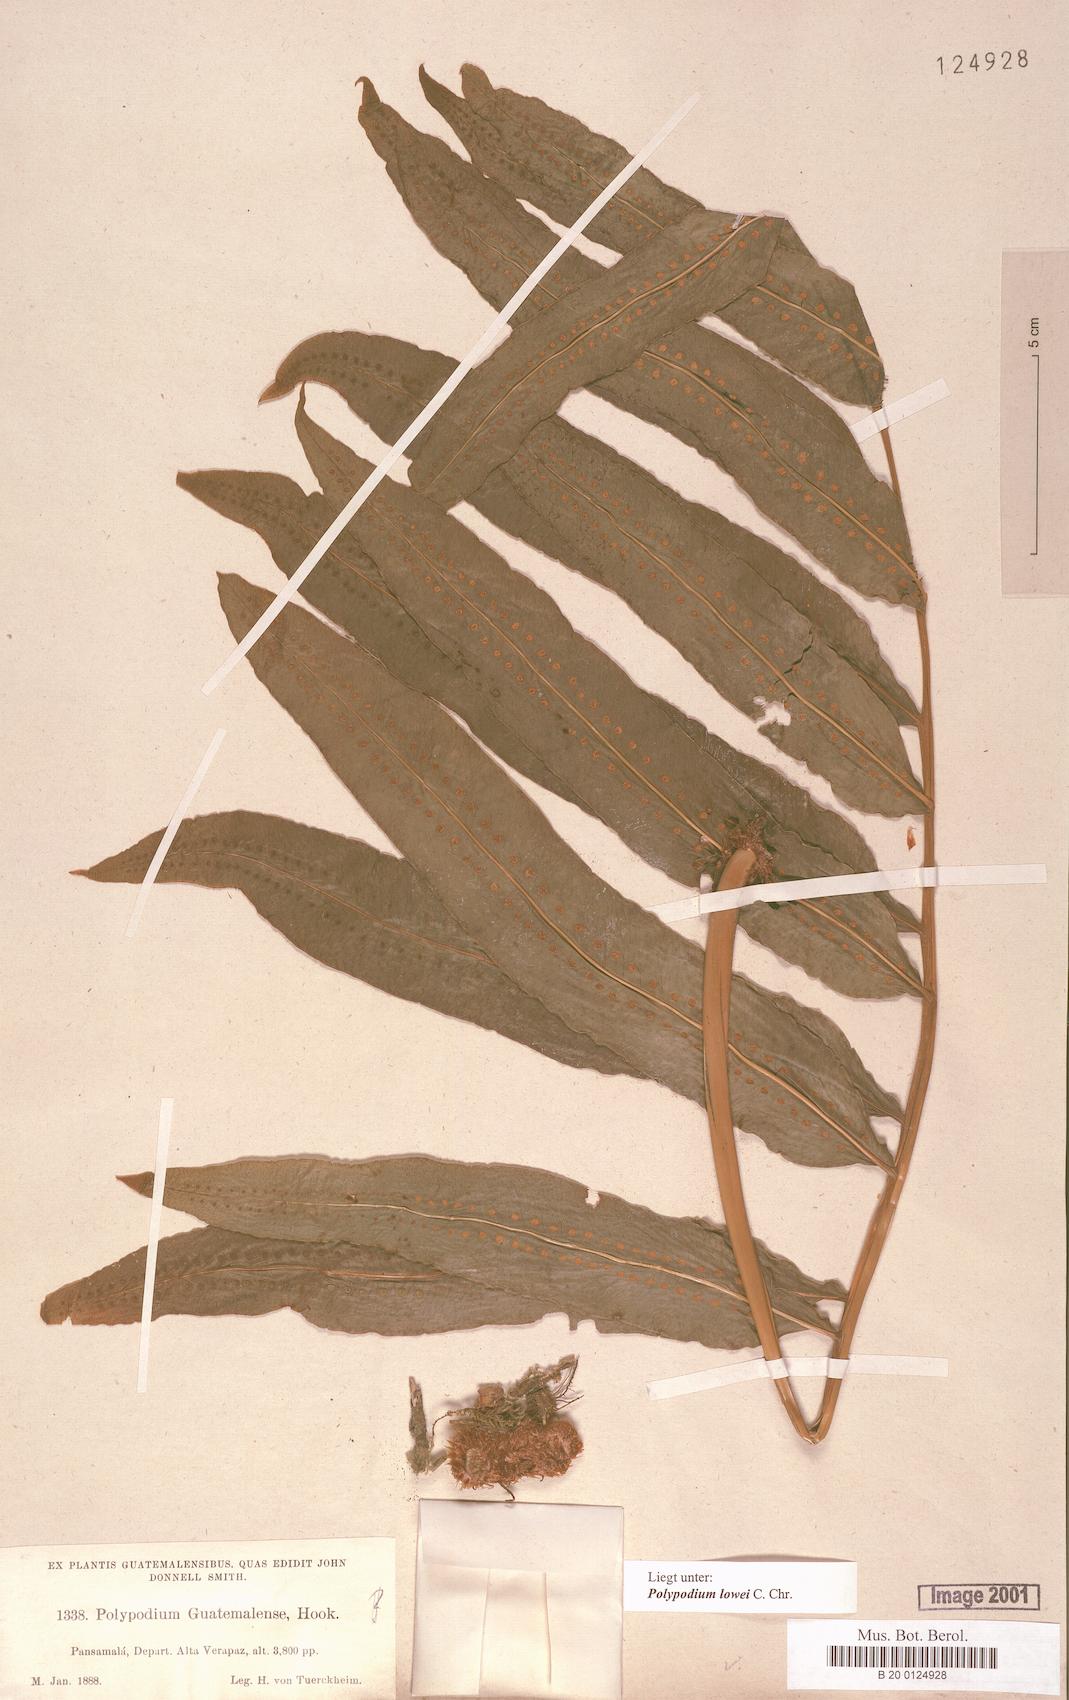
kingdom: Plantae
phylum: Tracheophyta
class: Polypodiopsida
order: Polypodiales
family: Polypodiaceae
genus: Polypodium
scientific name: Polypodium pleurosorum
